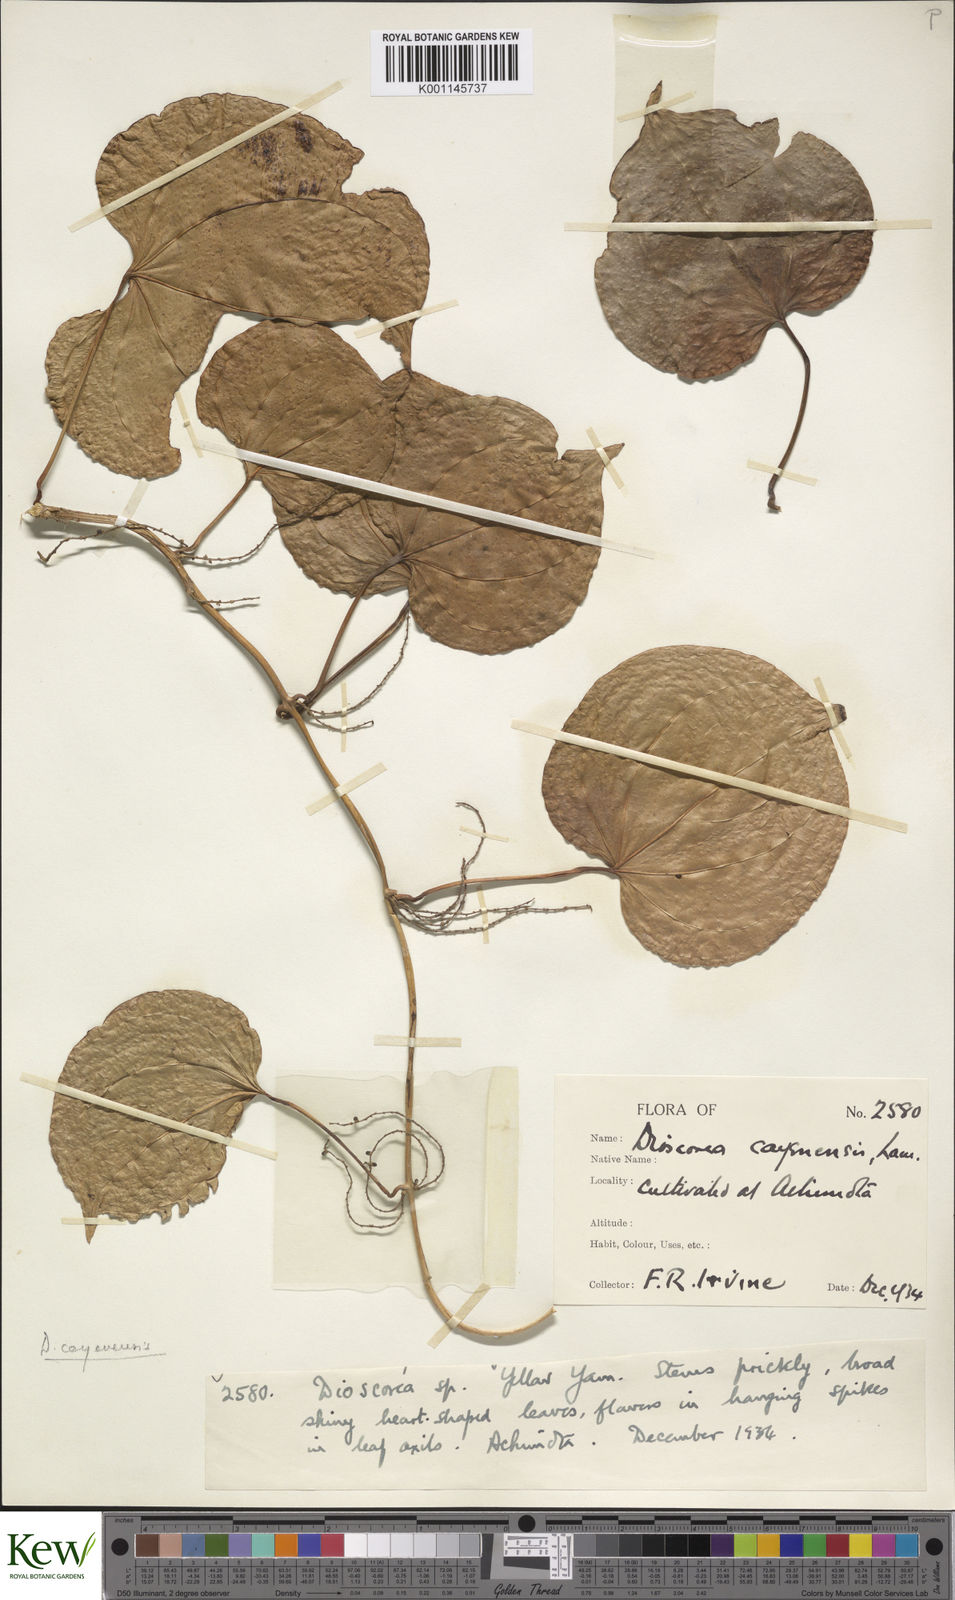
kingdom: Plantae
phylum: Tracheophyta
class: Liliopsida
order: Dioscoreales
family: Dioscoreaceae
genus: Dioscorea
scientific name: Dioscorea cayenensis
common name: Attoto yam
